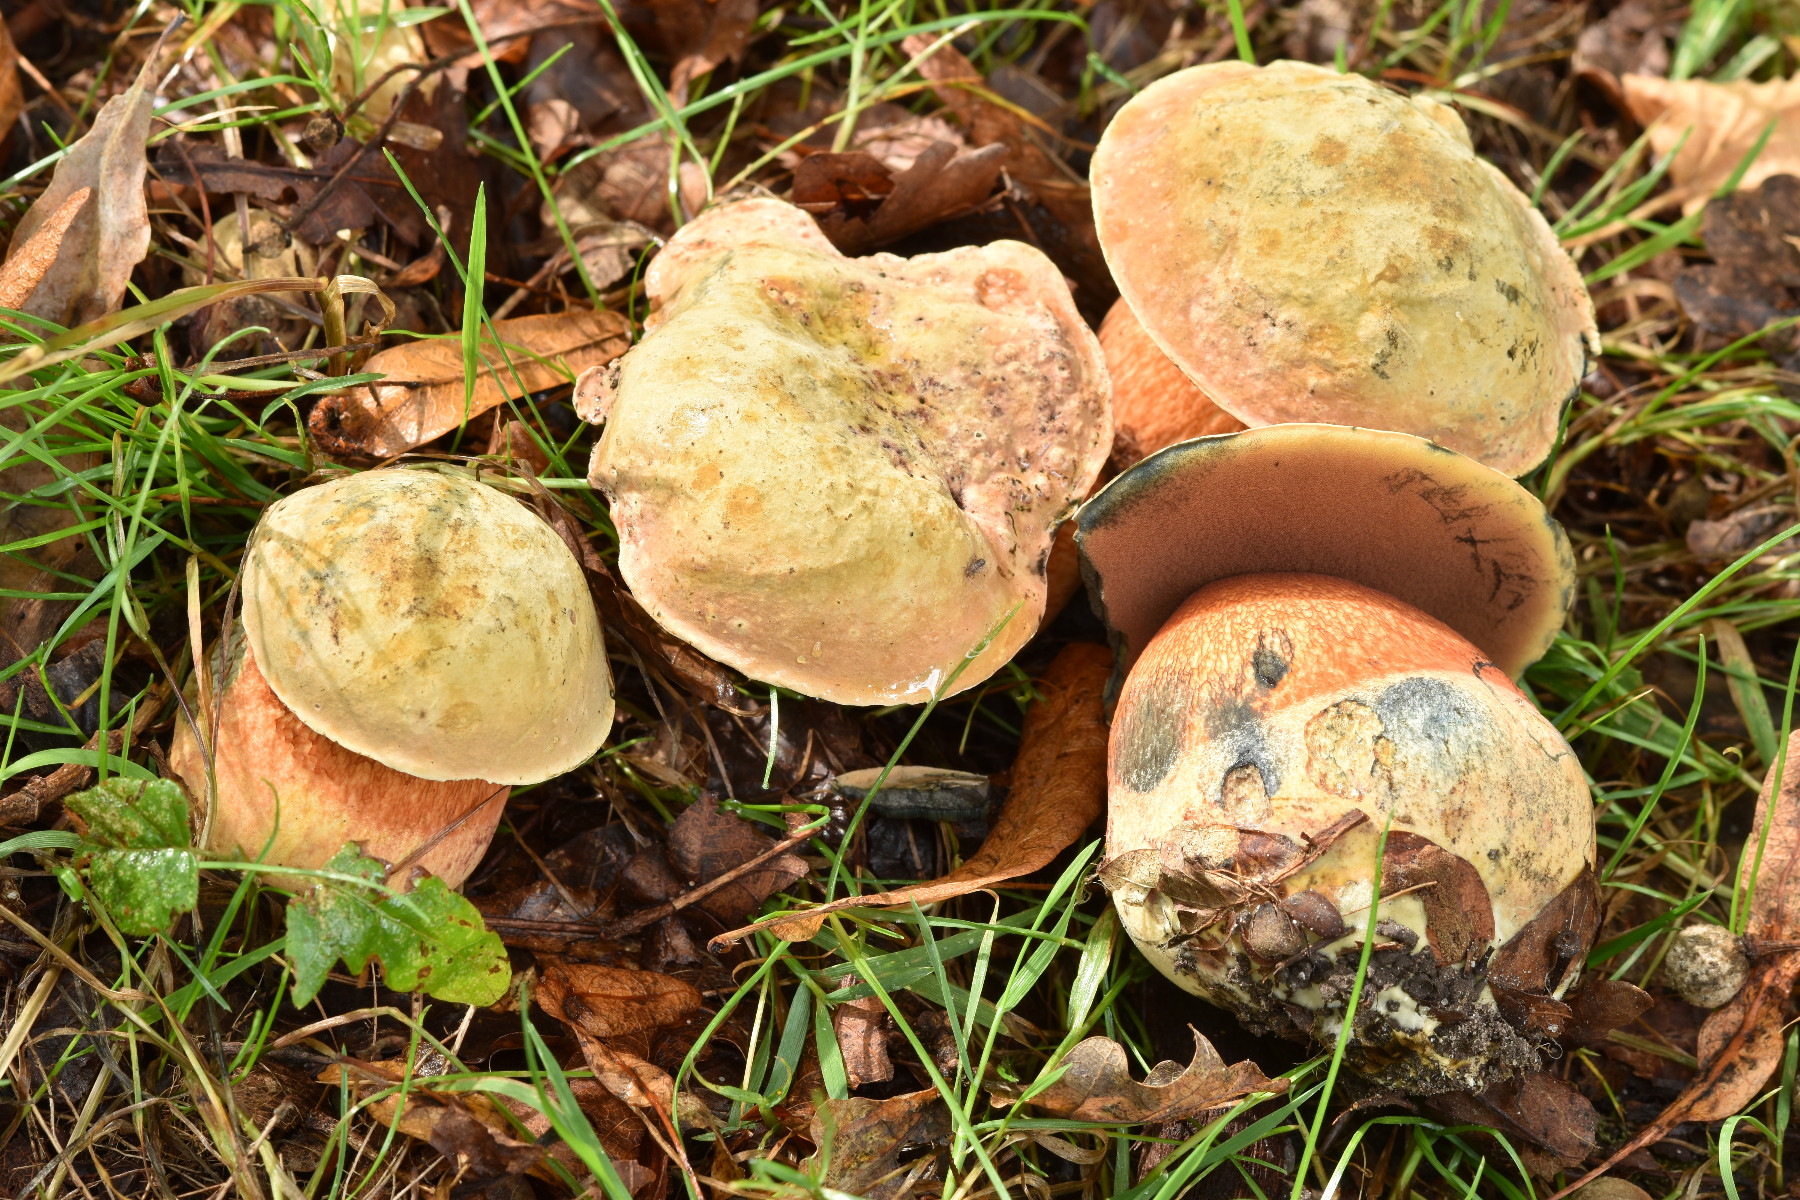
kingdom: Fungi
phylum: Basidiomycota
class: Agaricomycetes
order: Boletales
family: Boletaceae
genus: Suillellus
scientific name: Suillellus luridus
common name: netstokket indigorørhat
